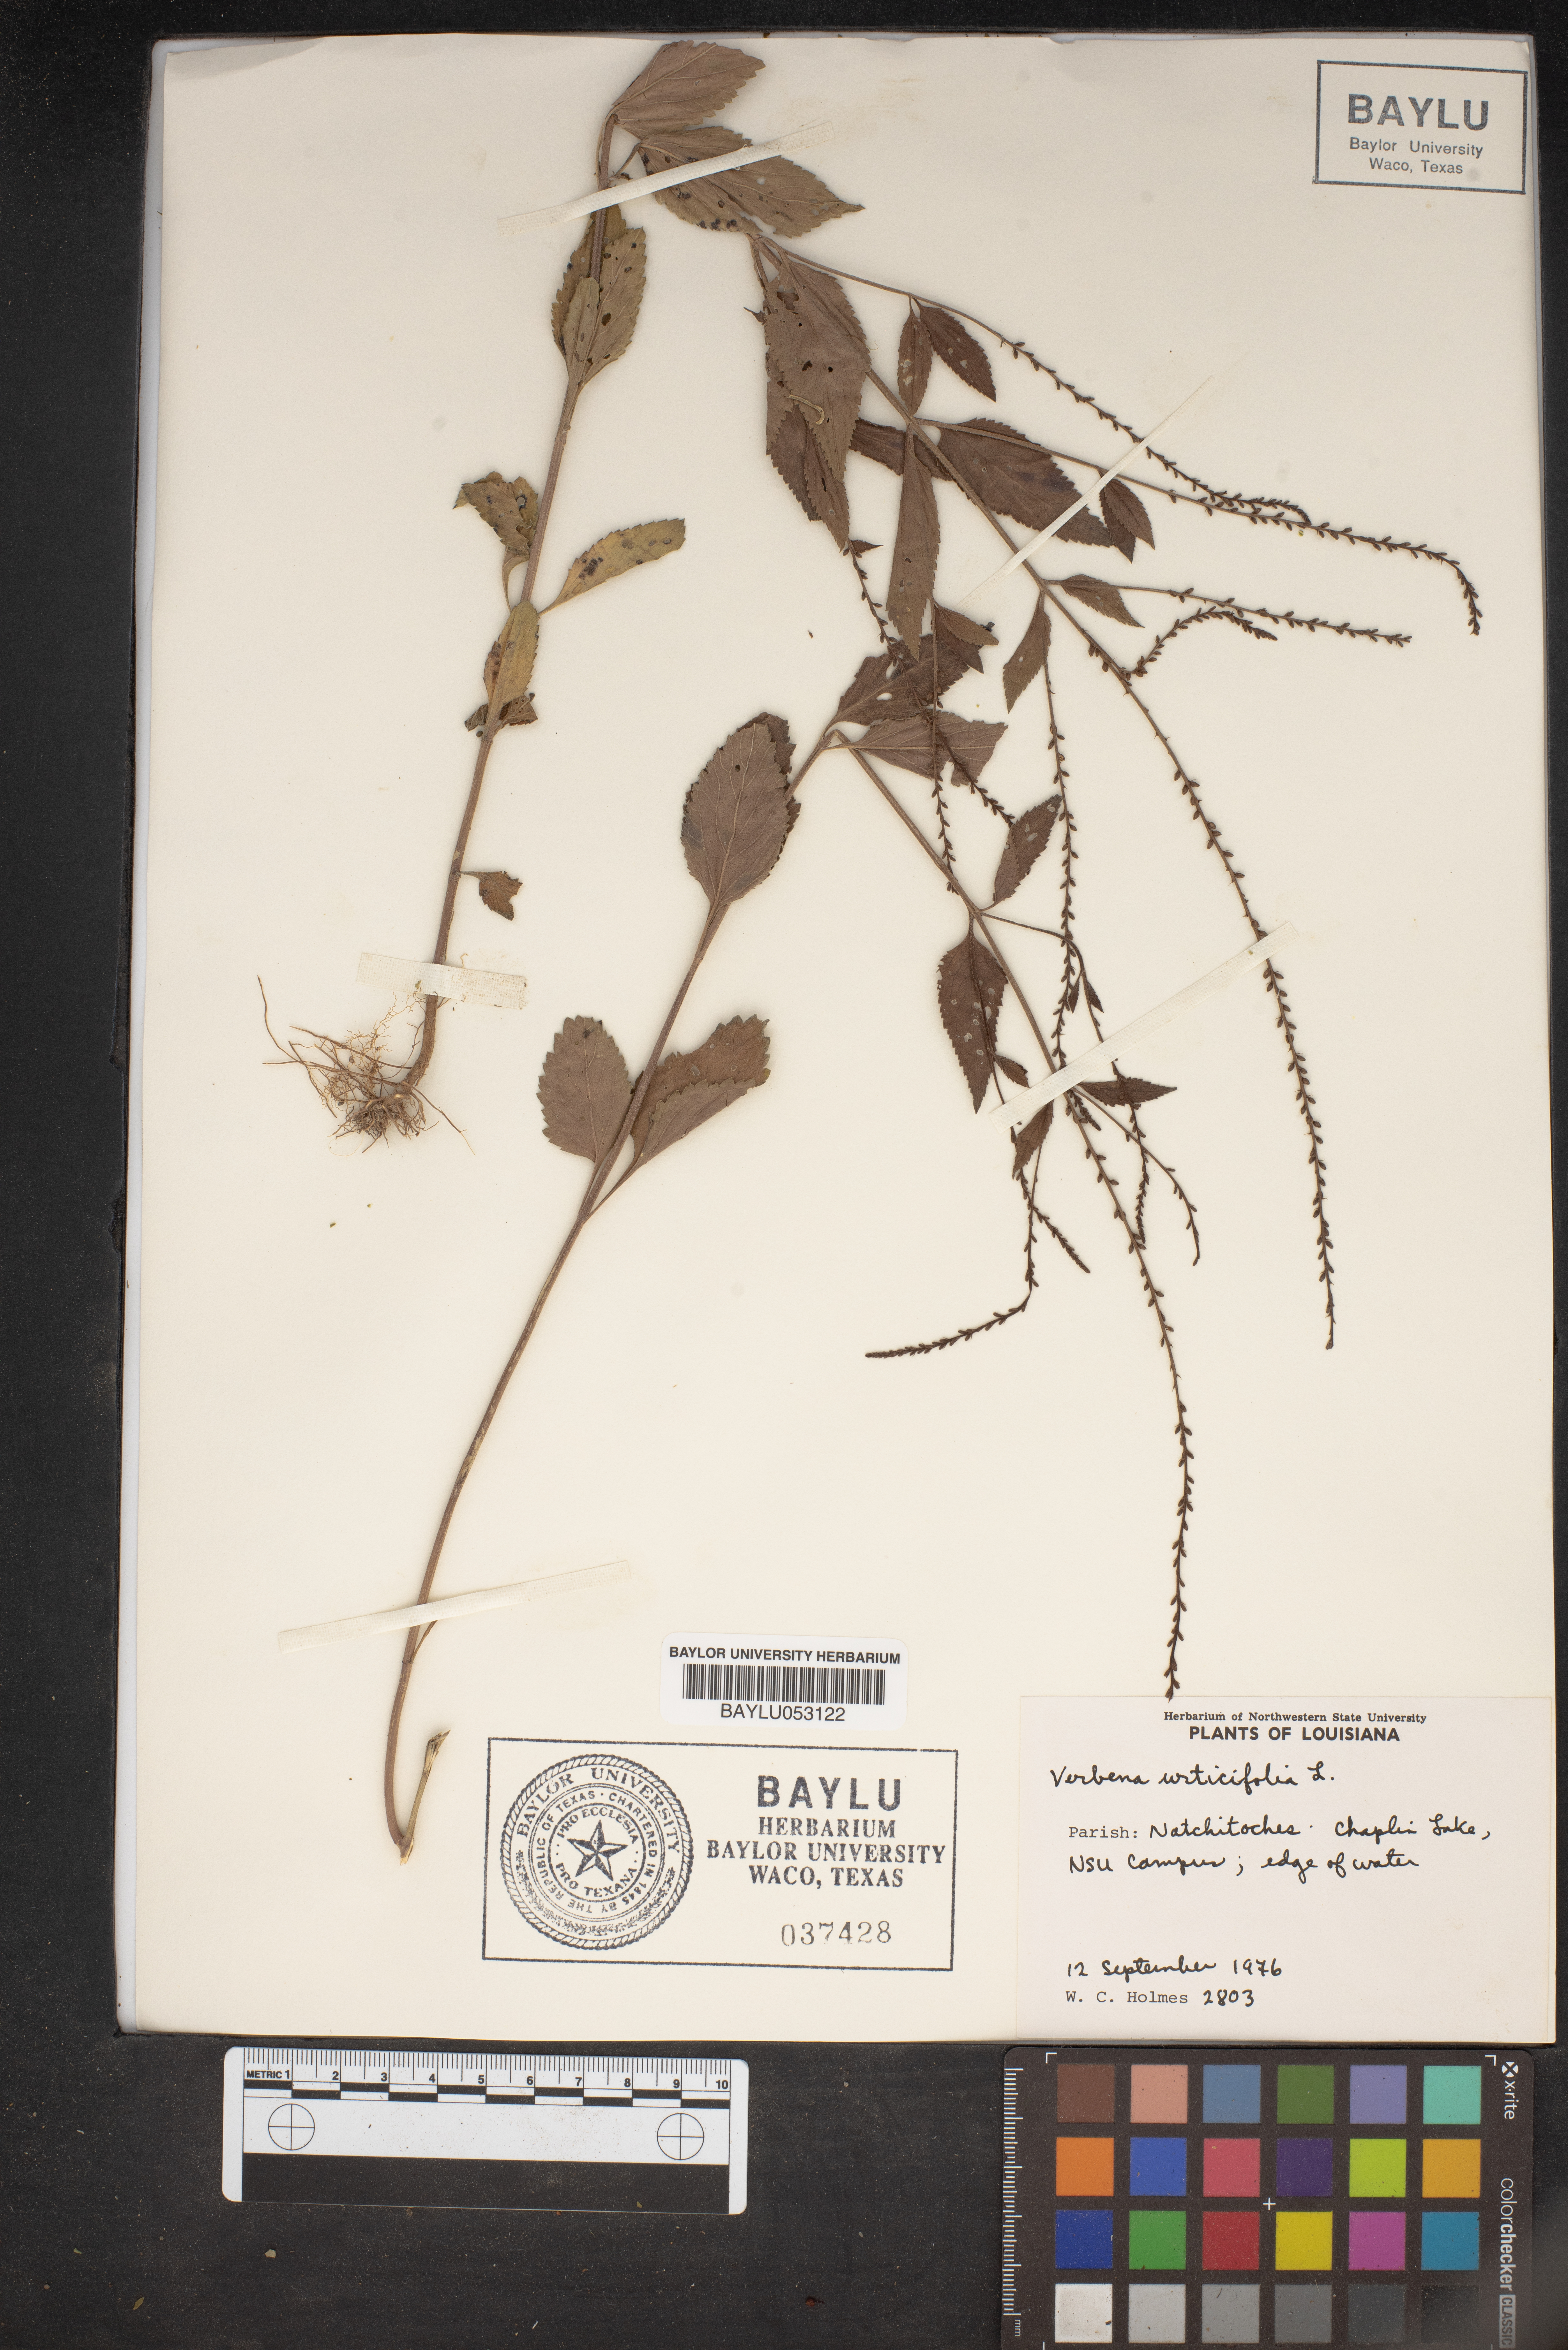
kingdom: Plantae
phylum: Tracheophyta
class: Magnoliopsida
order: Lamiales
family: Verbenaceae
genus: Verbena
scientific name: Verbena urticifolia
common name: Nettle-leaved vervain
